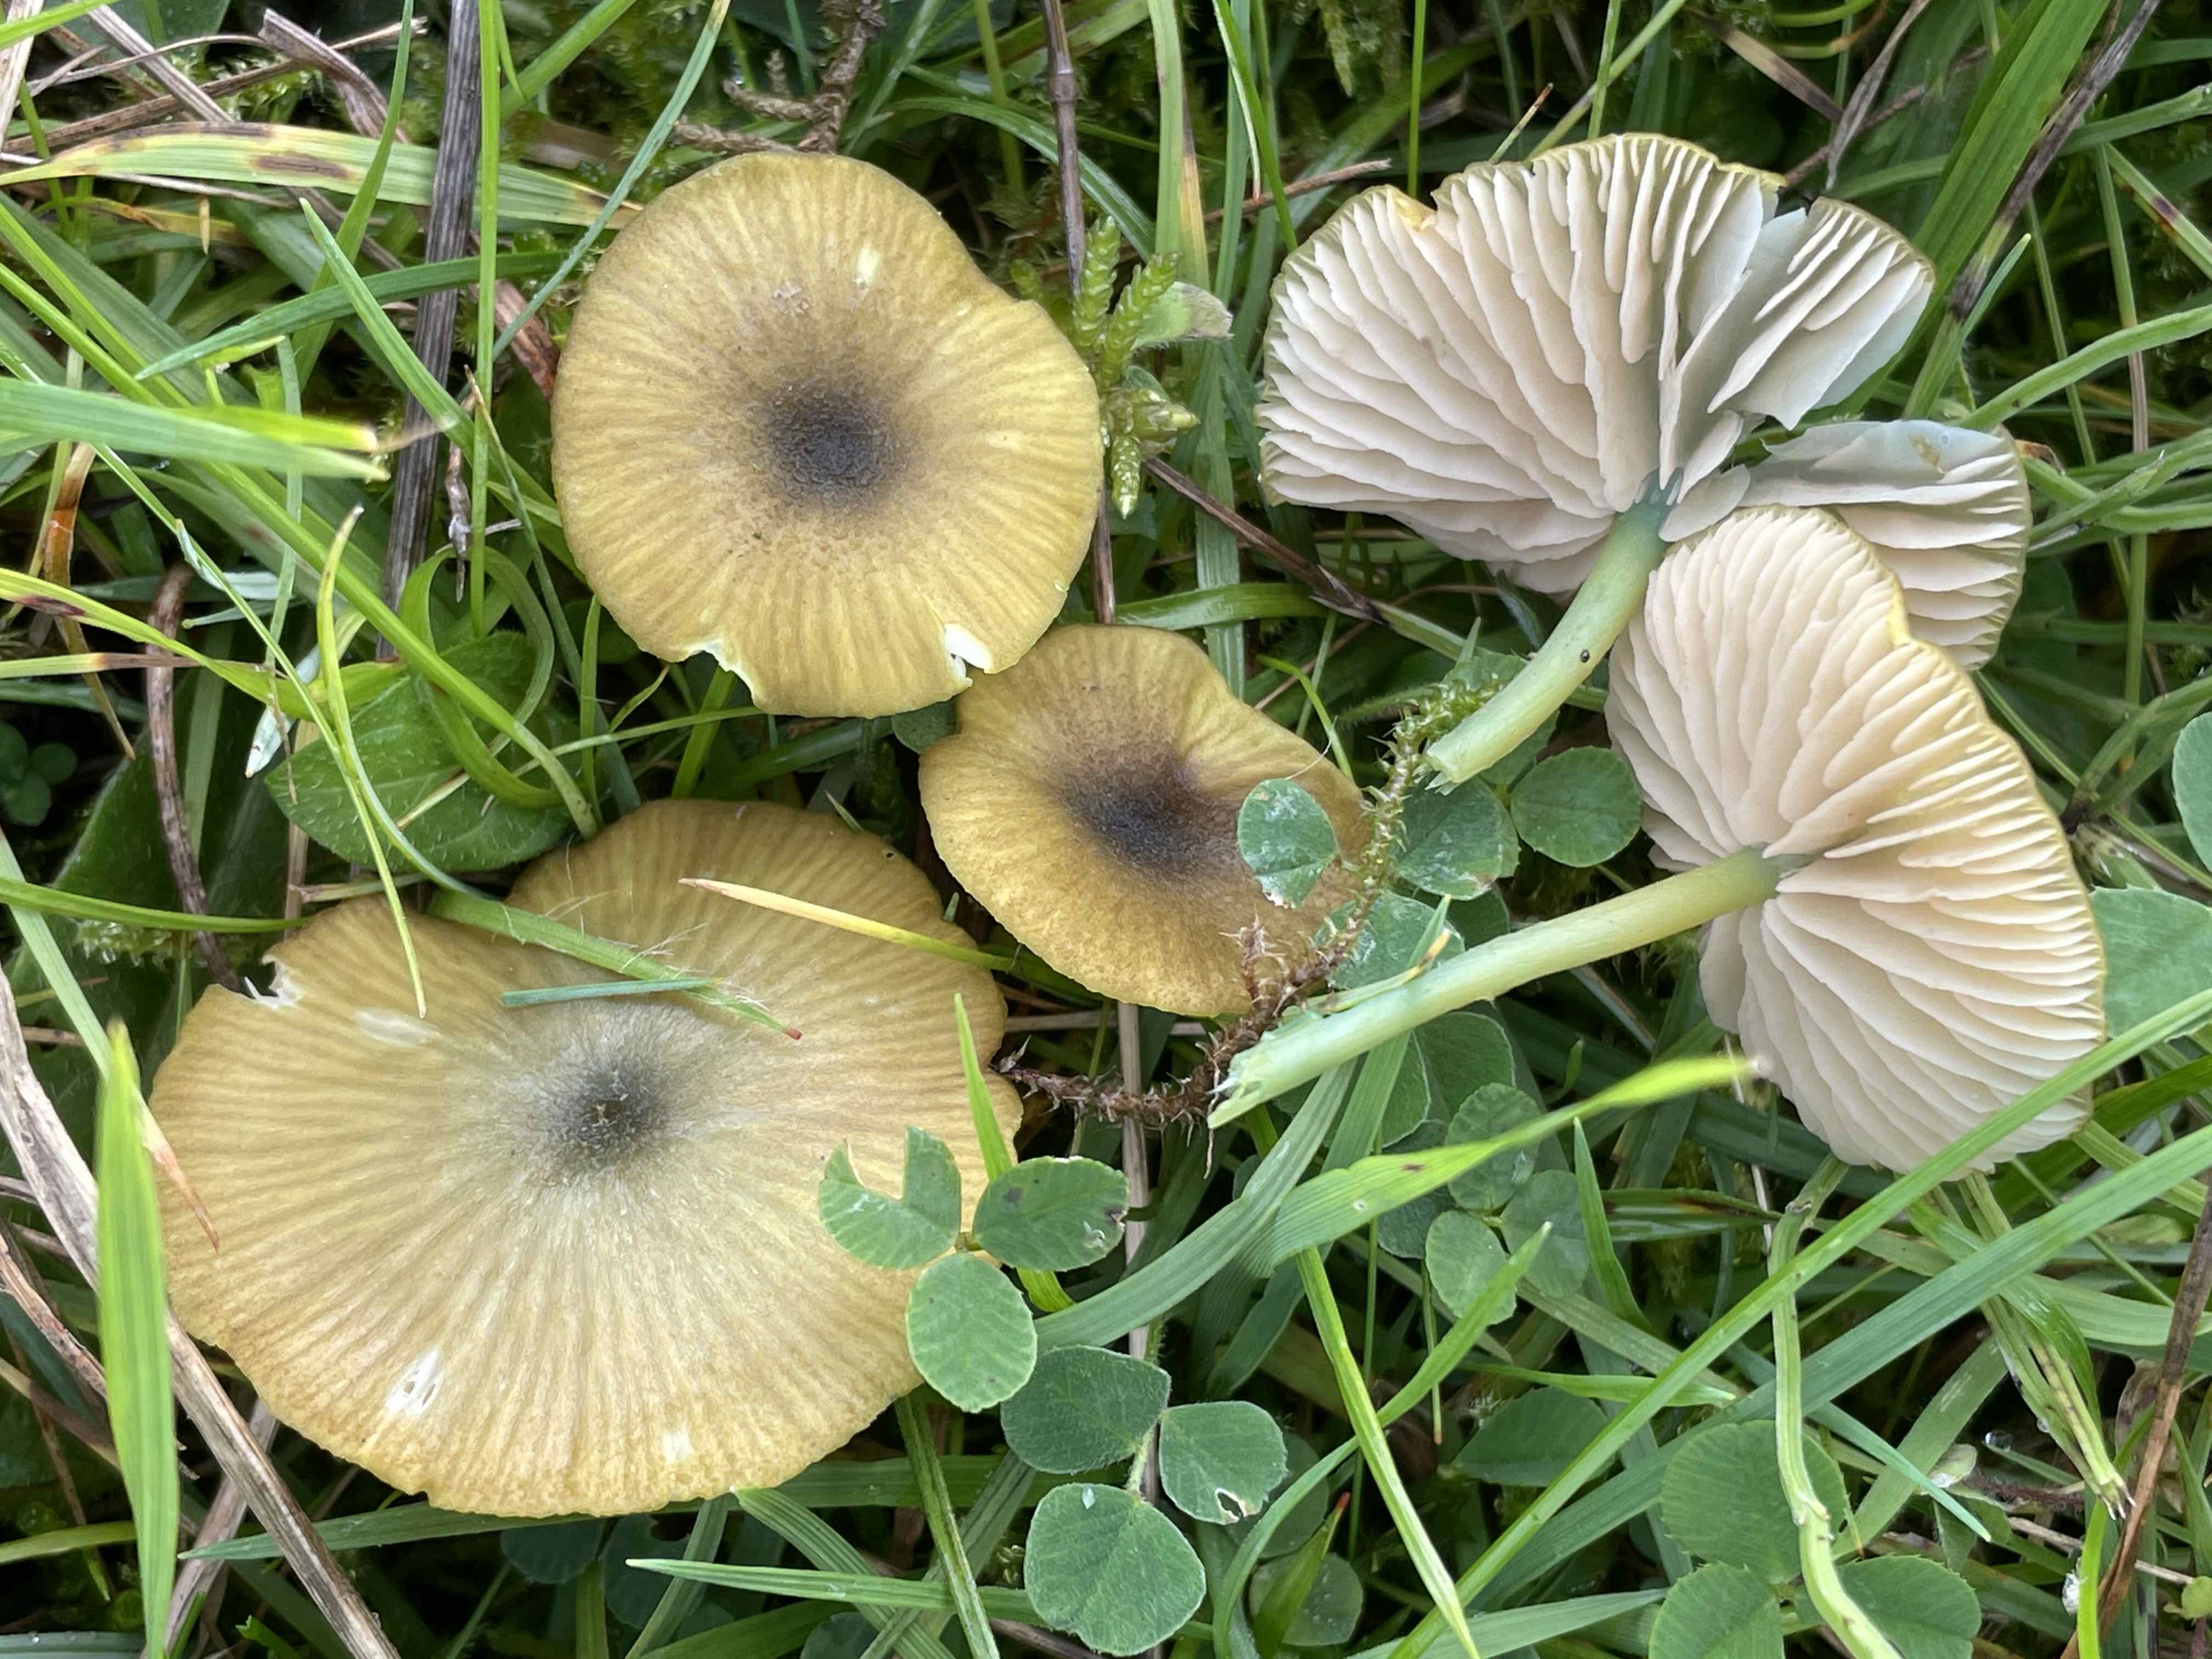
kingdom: Fungi
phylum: Basidiomycota
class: Agaricomycetes
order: Agaricales
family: Entolomataceae
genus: Entoloma
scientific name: Entoloma incanum
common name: grøngul rødblad
